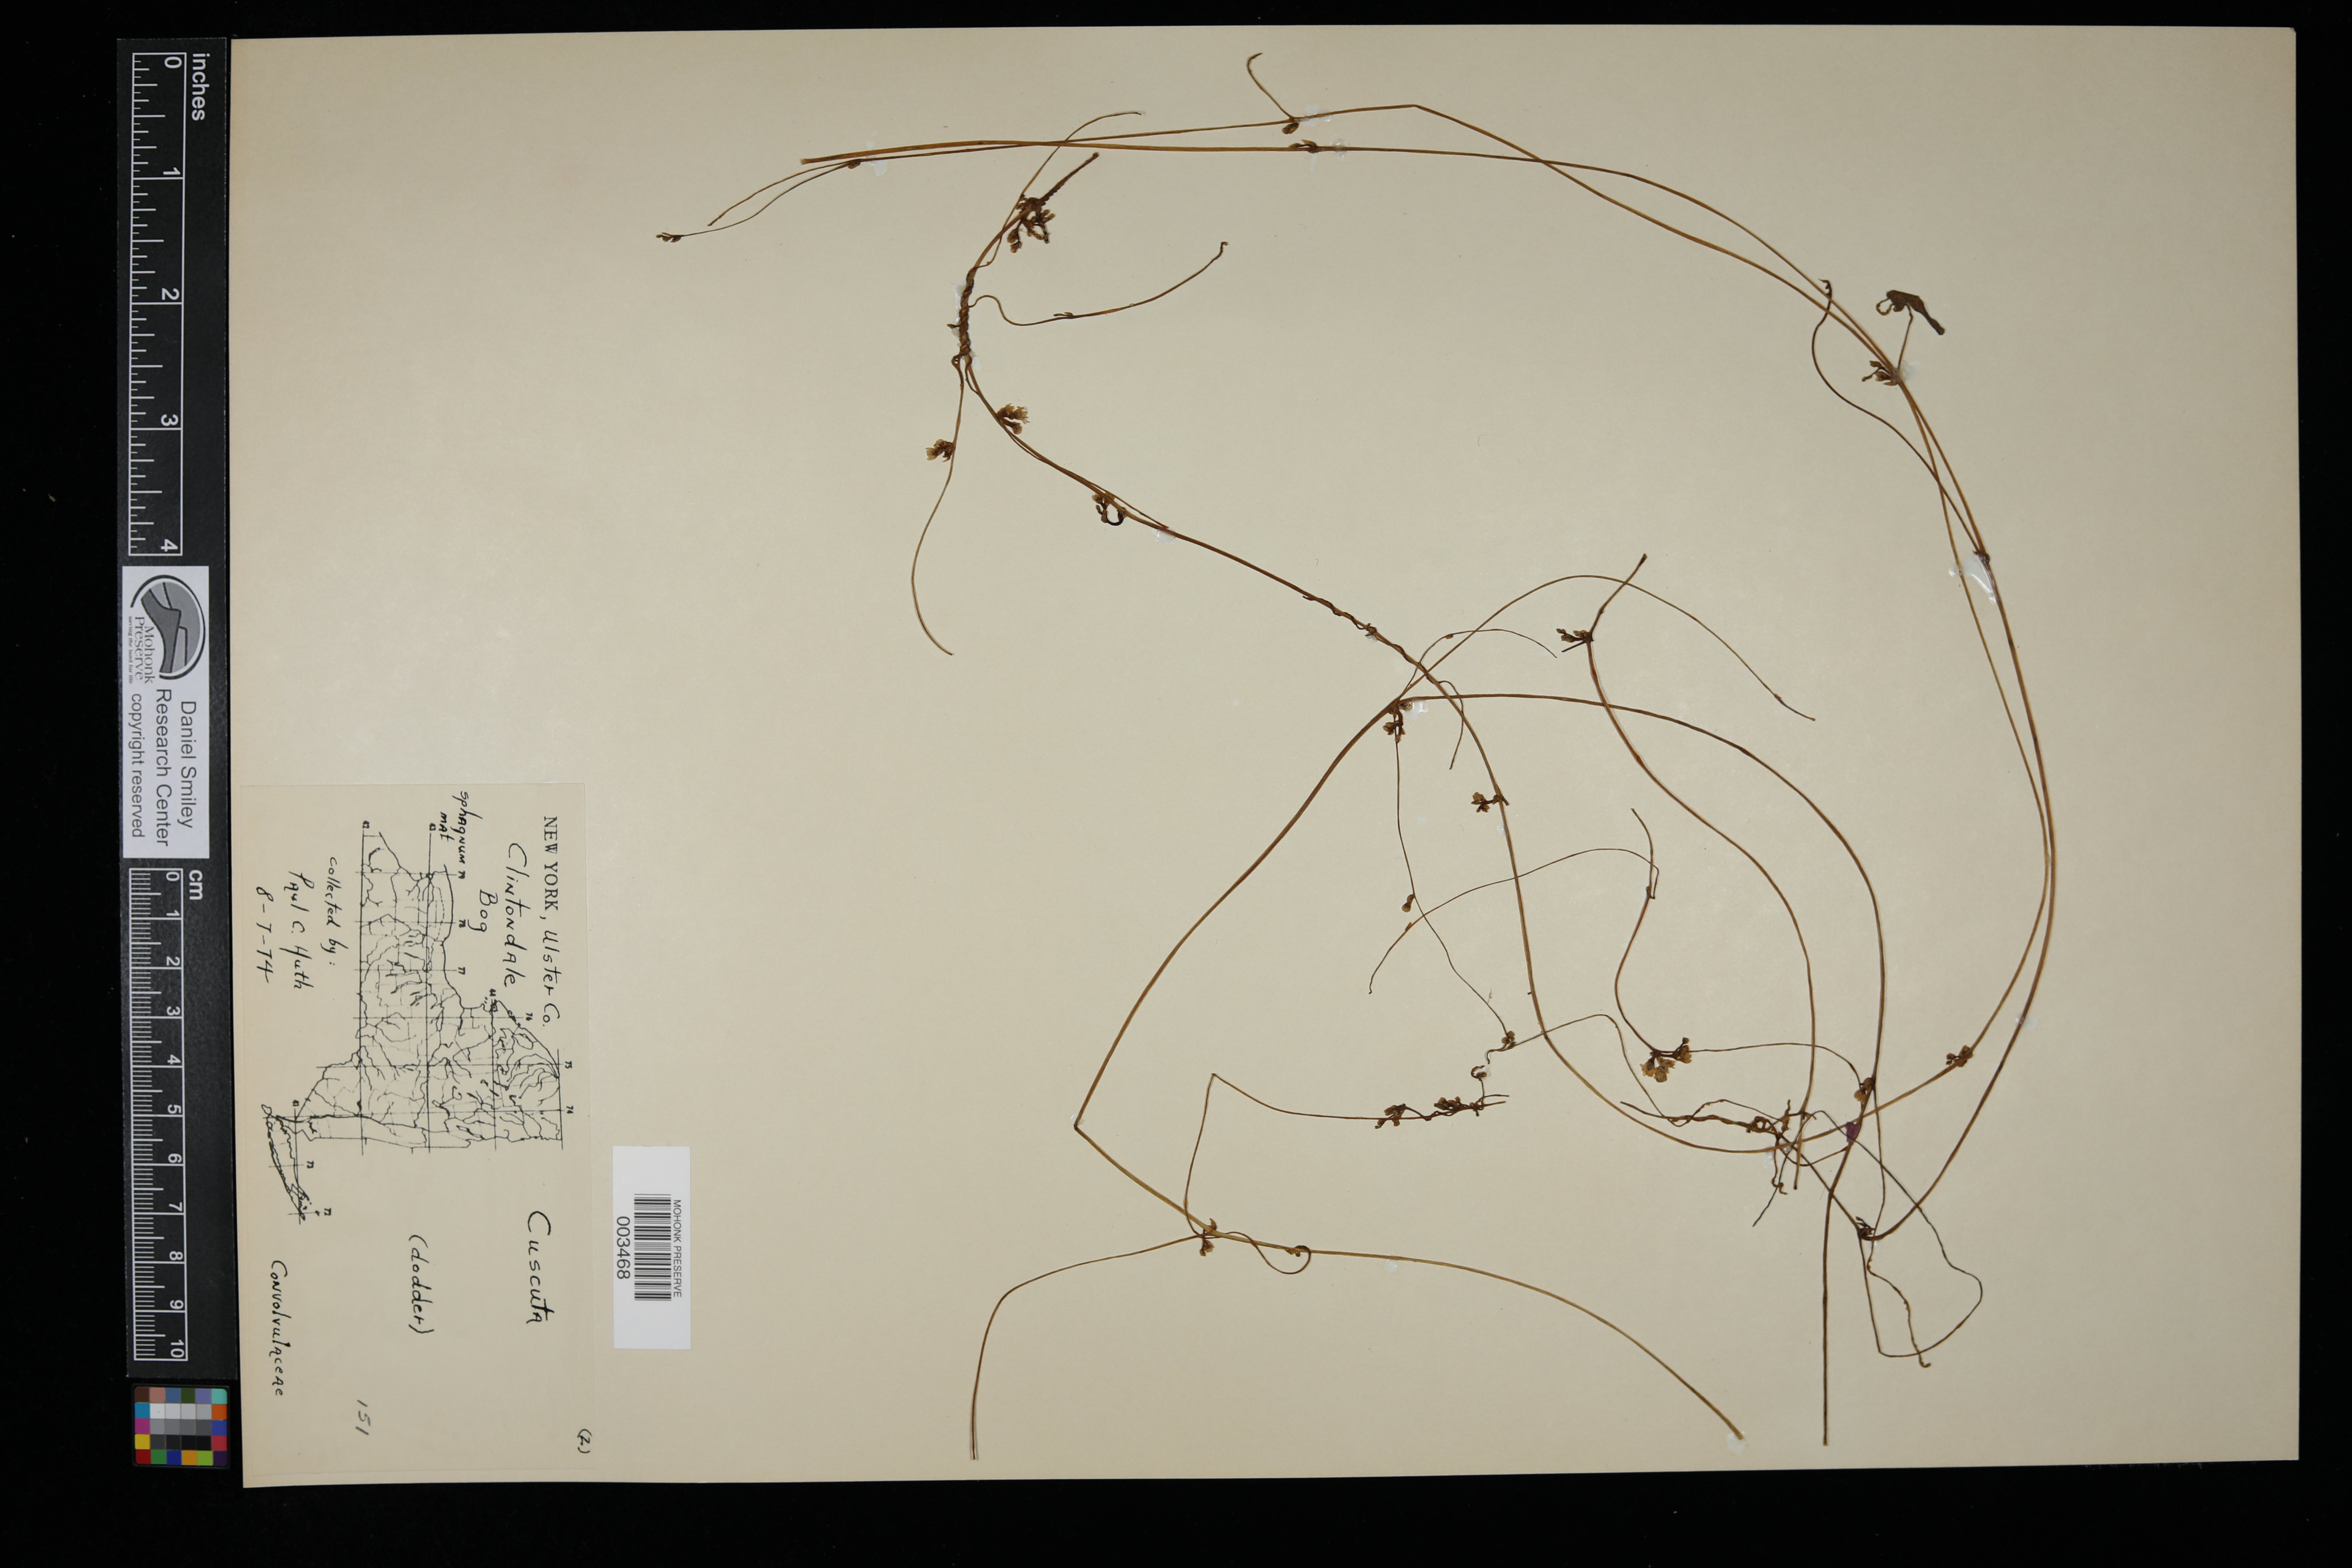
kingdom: Plantae
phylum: Tracheophyta
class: Magnoliopsida
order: Solanales
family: Convolvulaceae
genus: Cuscuta
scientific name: Cuscuta
